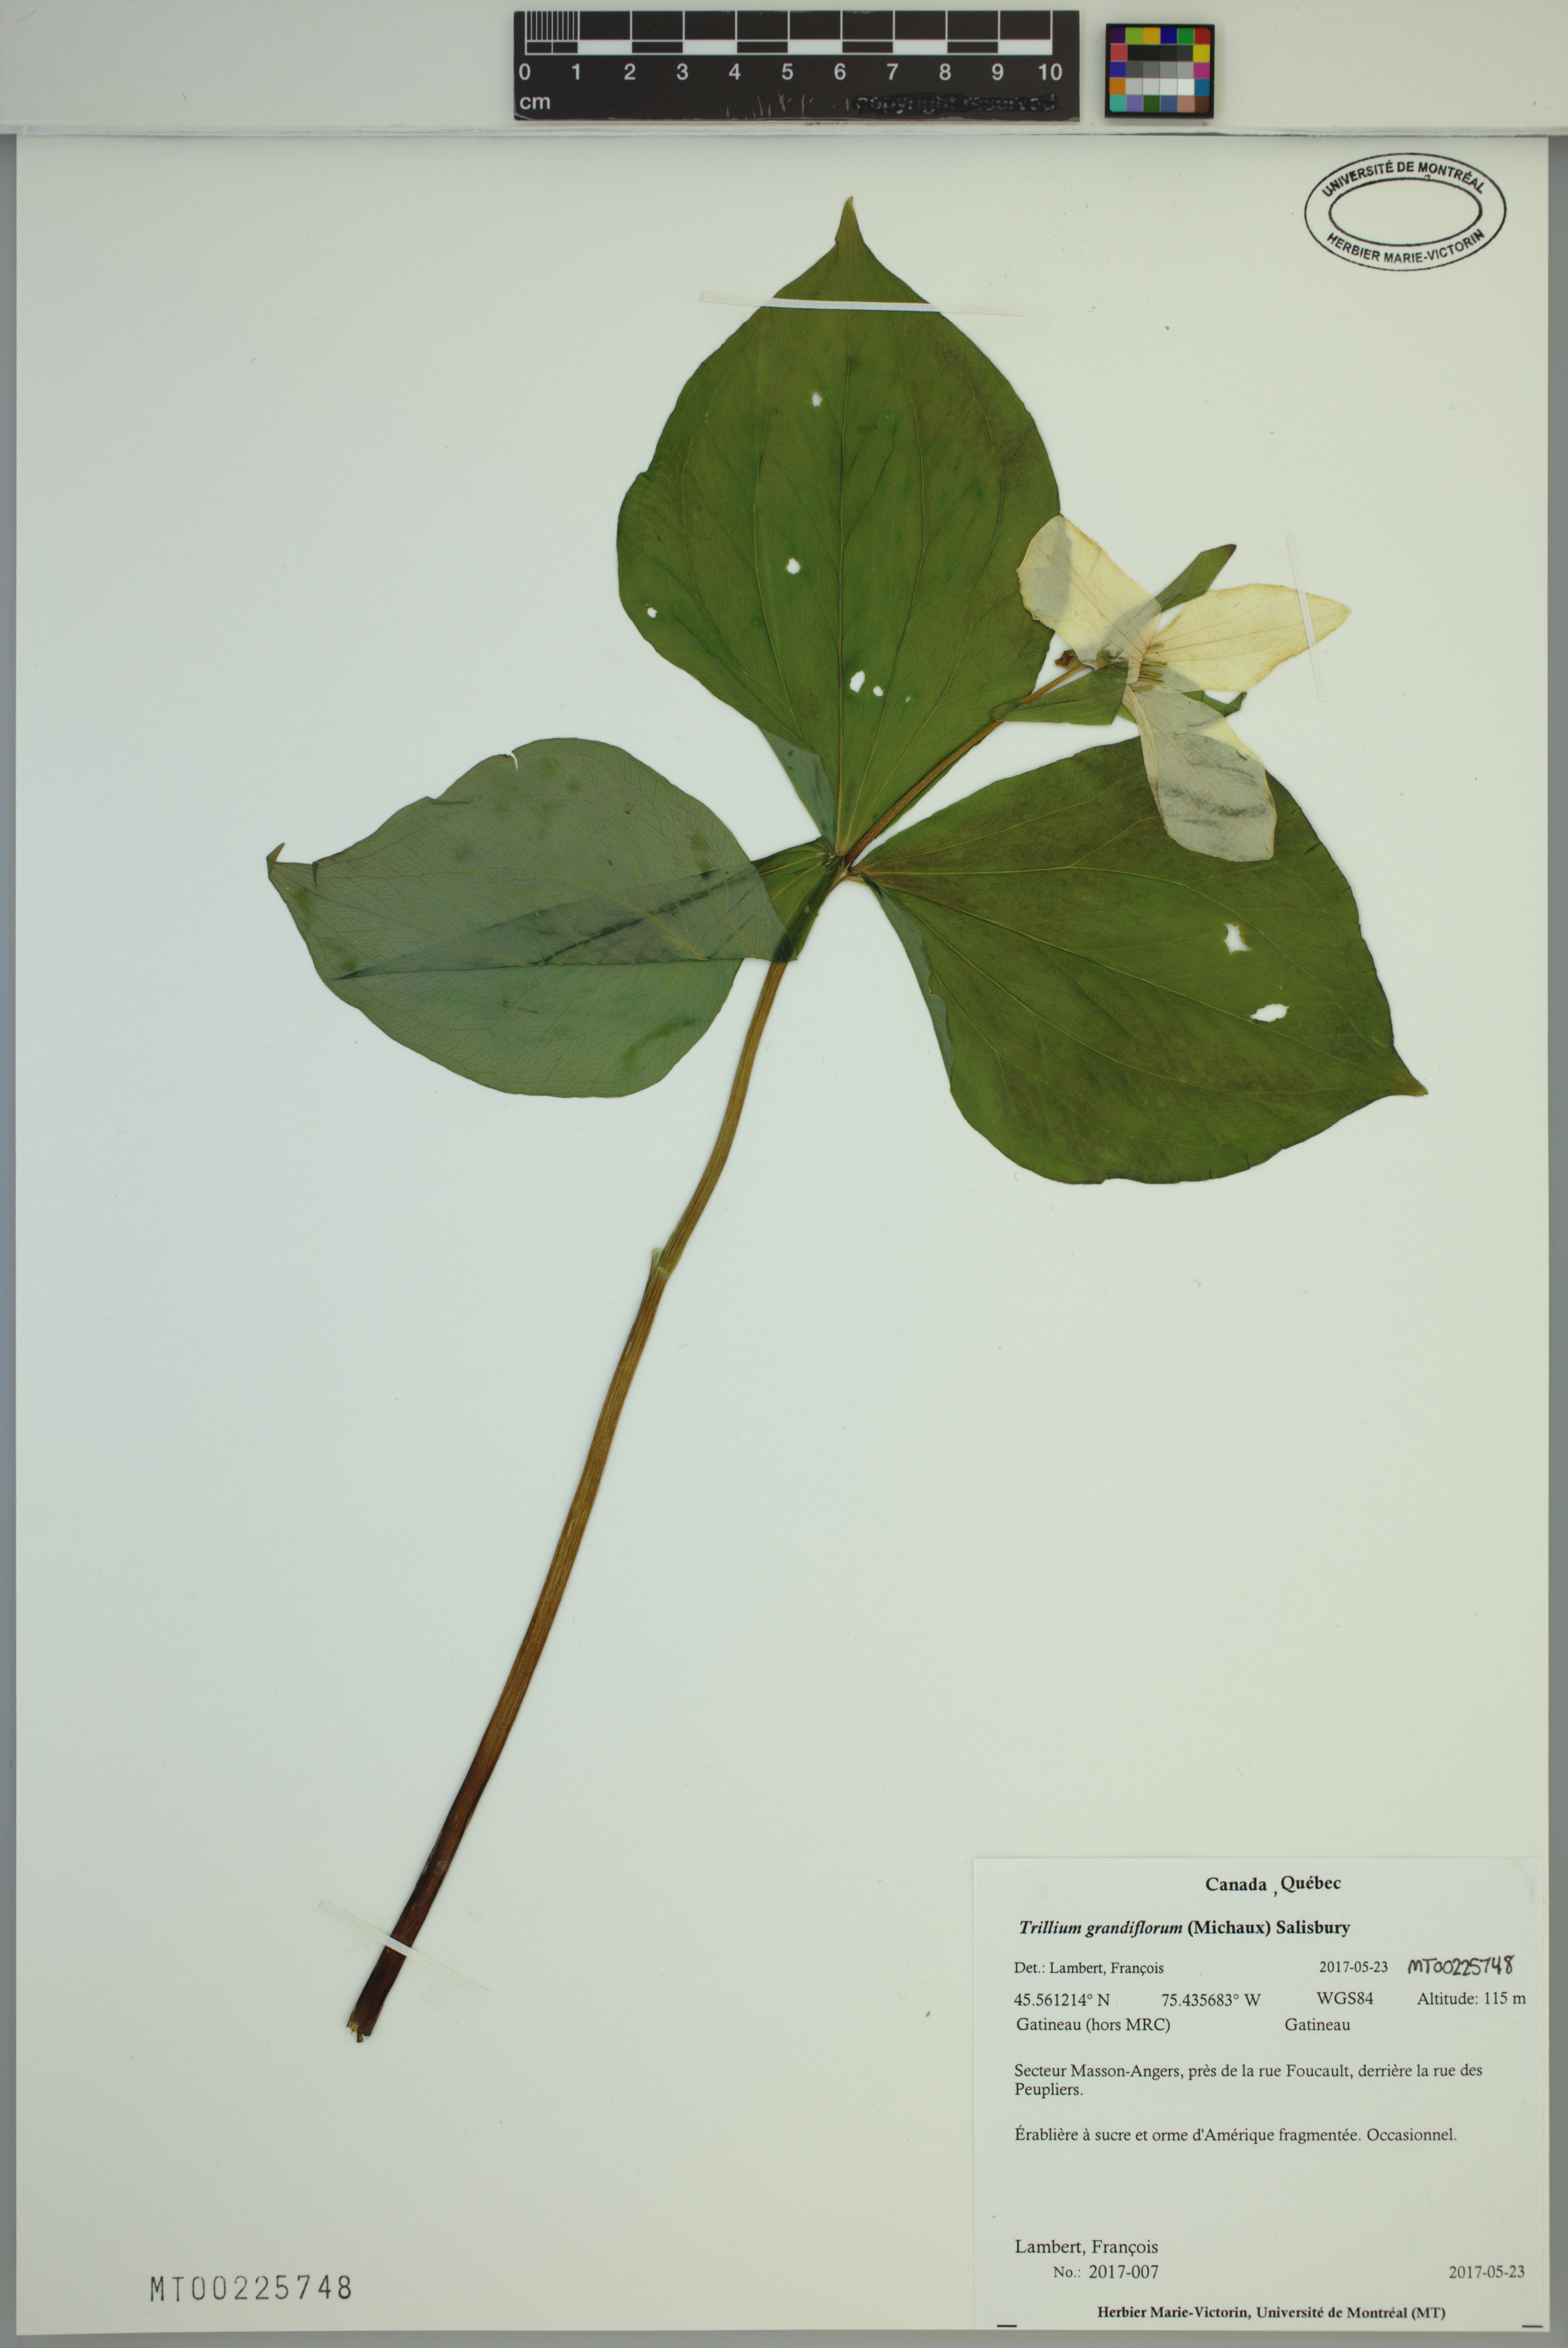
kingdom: Plantae
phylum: Tracheophyta
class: Liliopsida
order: Liliales
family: Melanthiaceae
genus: Trillium
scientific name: Trillium grandiflorum
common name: Great white trillium
